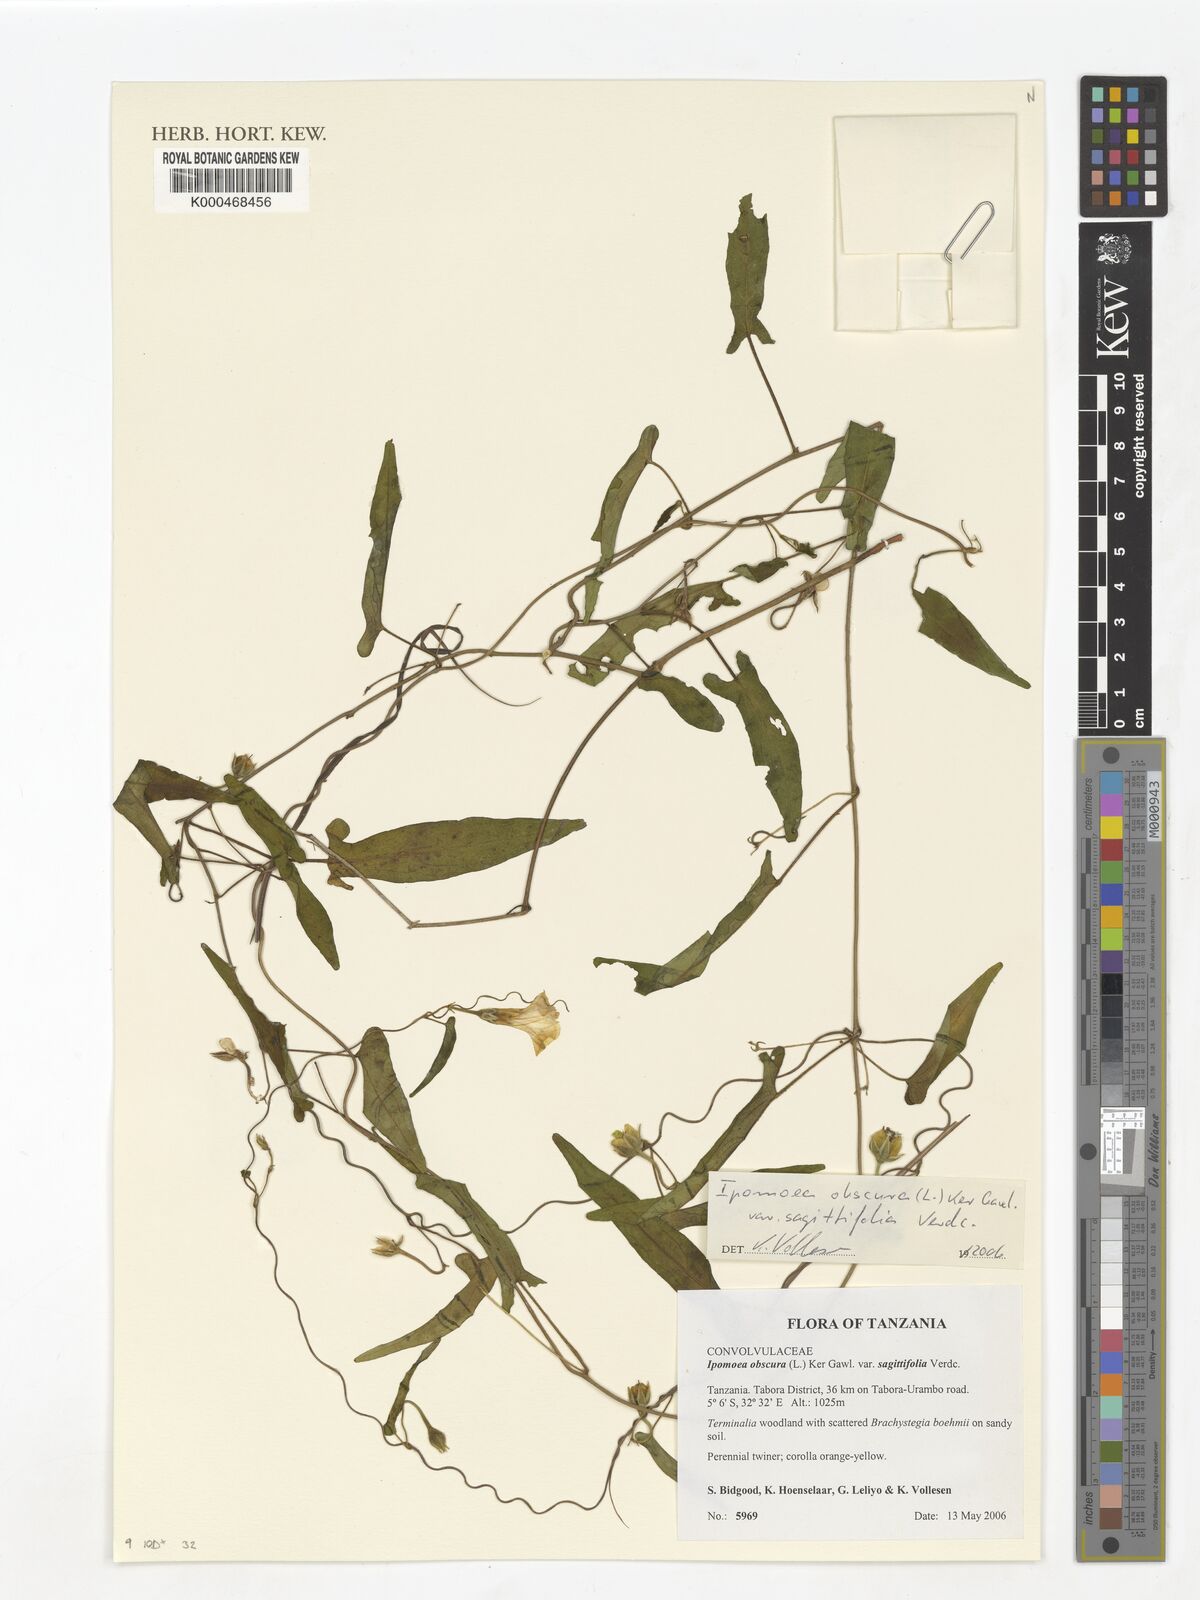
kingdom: Plantae
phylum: Tracheophyta
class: Magnoliopsida
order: Solanales
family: Convolvulaceae
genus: Ipomoea
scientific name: Ipomoea obscura
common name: Obscure morning-glory
